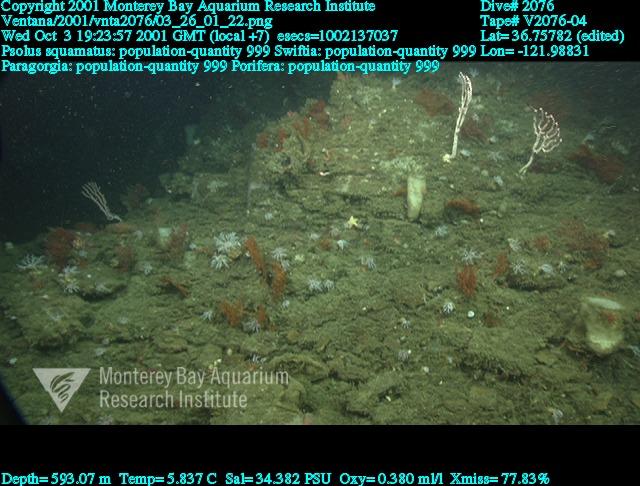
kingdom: Animalia
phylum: Porifera
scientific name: Porifera
